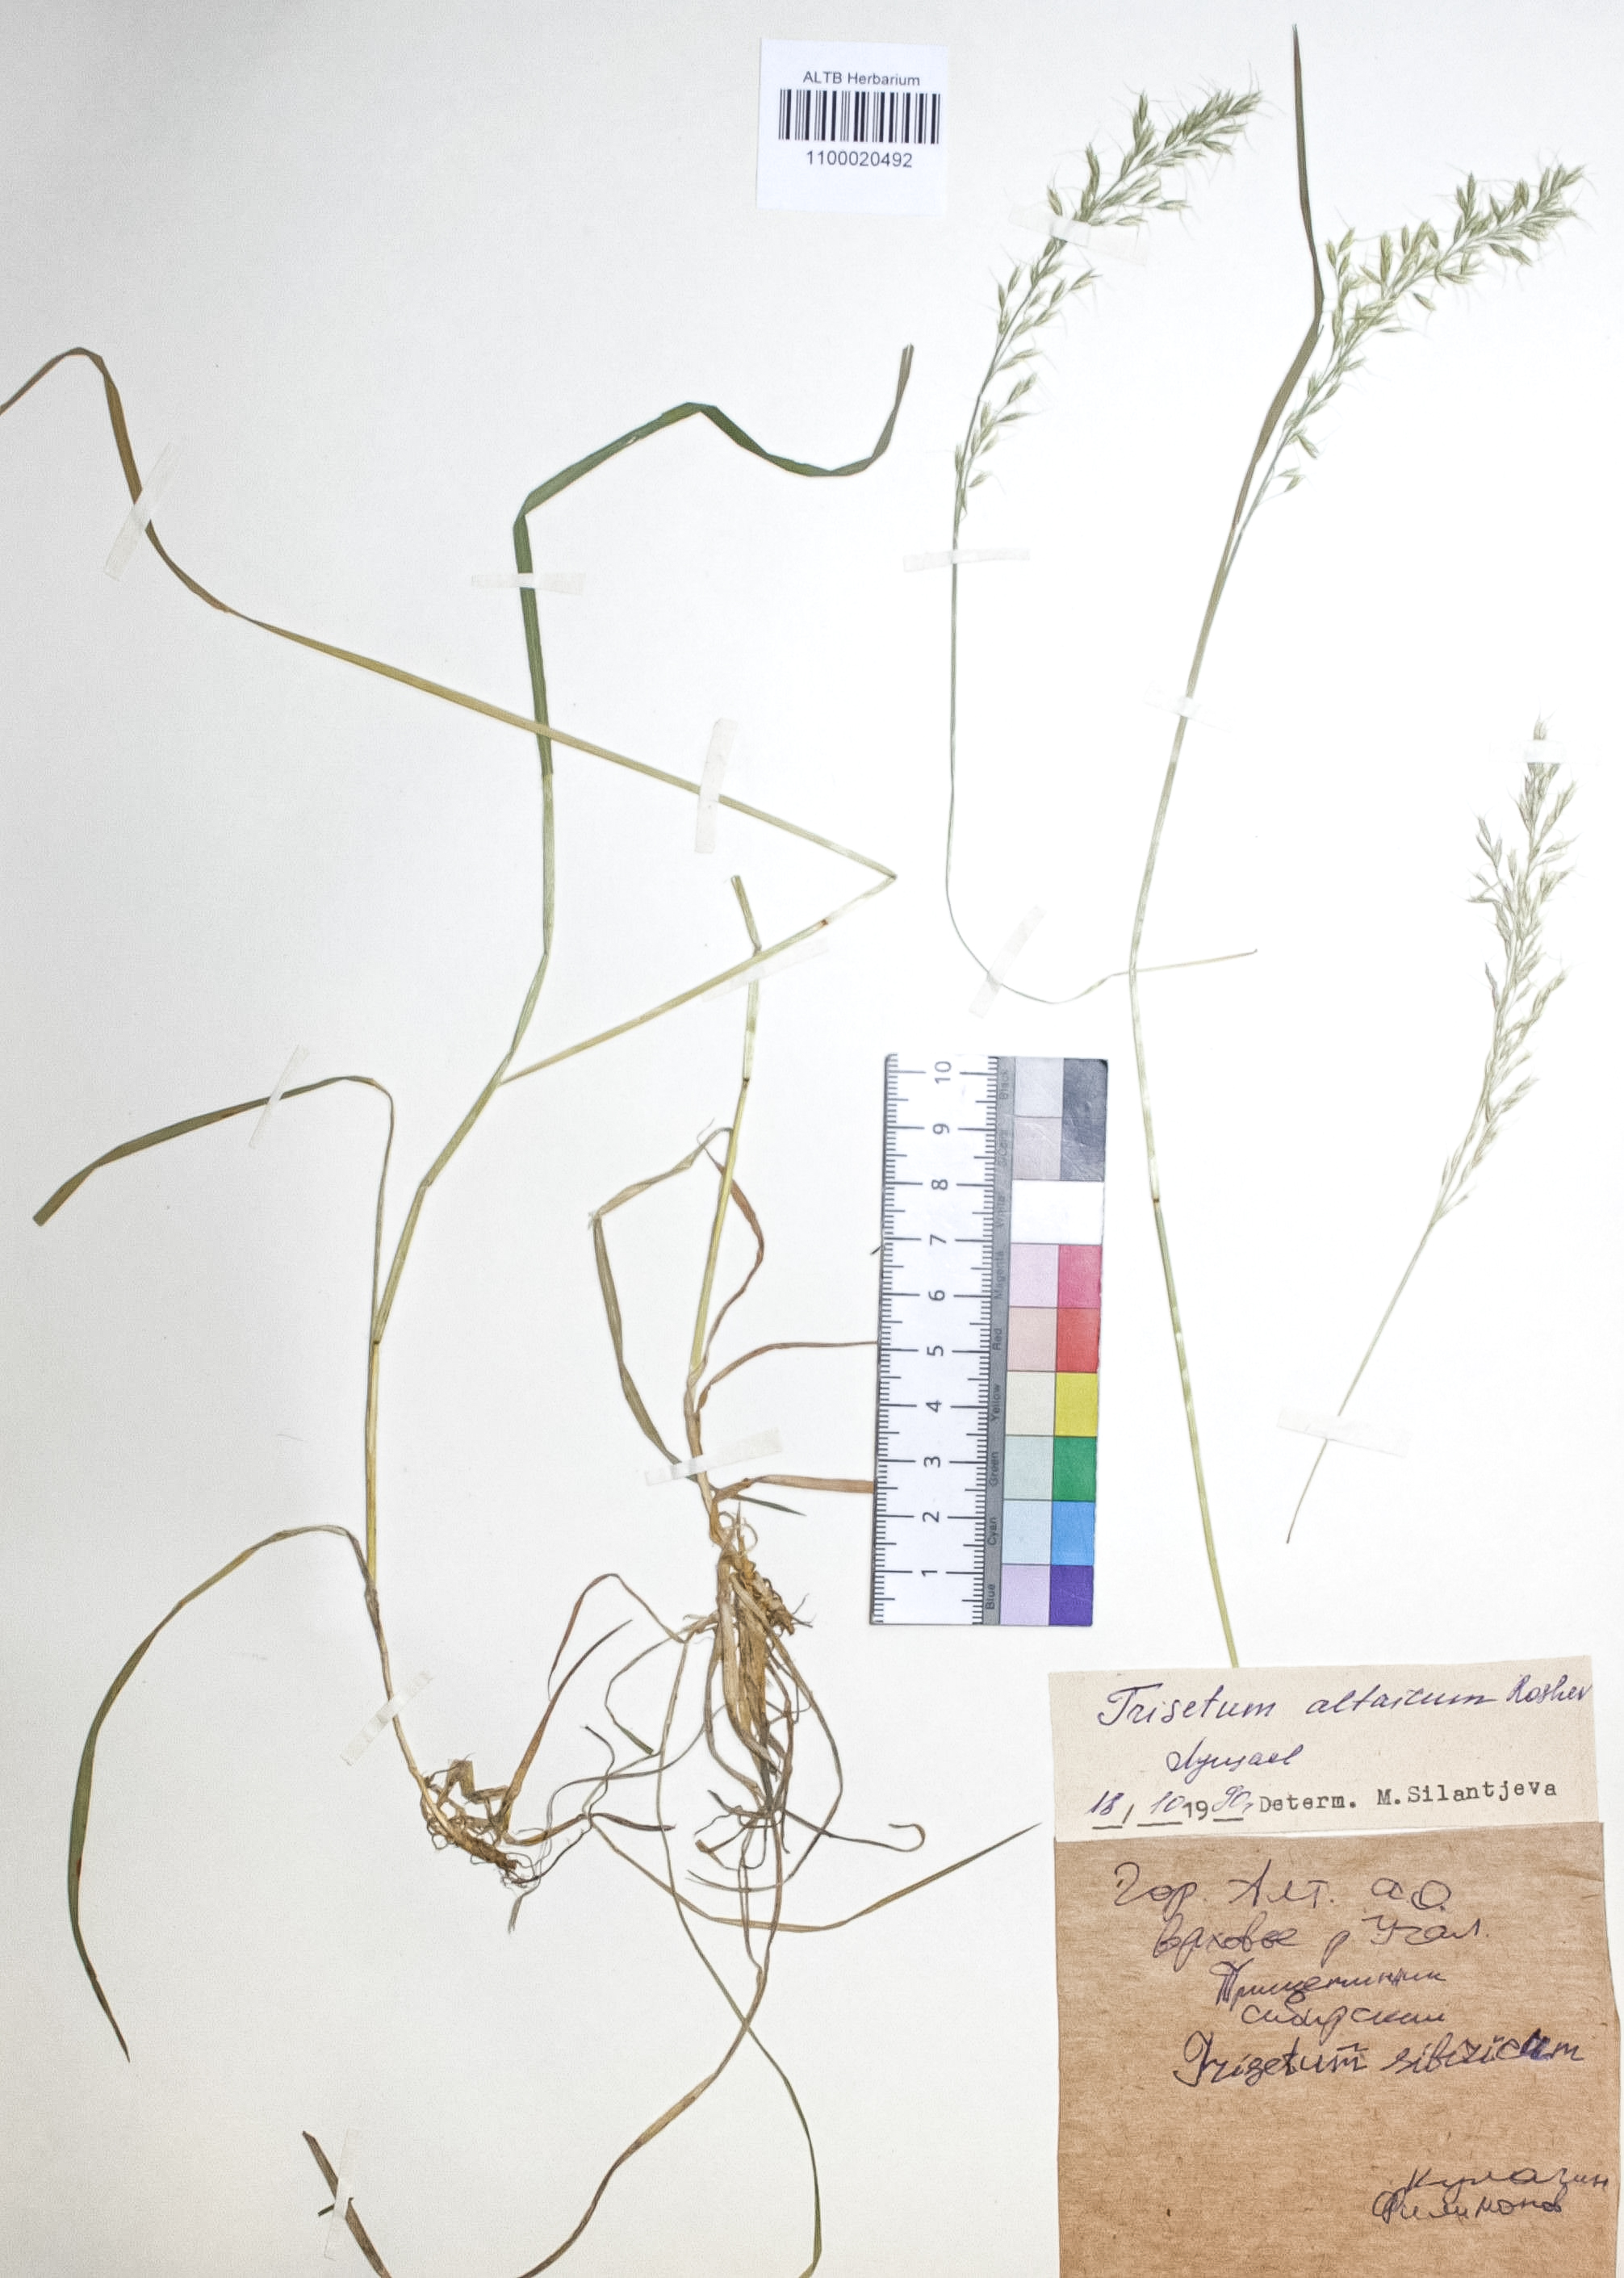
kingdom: Plantae
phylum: Tracheophyta
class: Liliopsida
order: Poales
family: Poaceae
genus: Trisetum
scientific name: Trisetum altaicum
